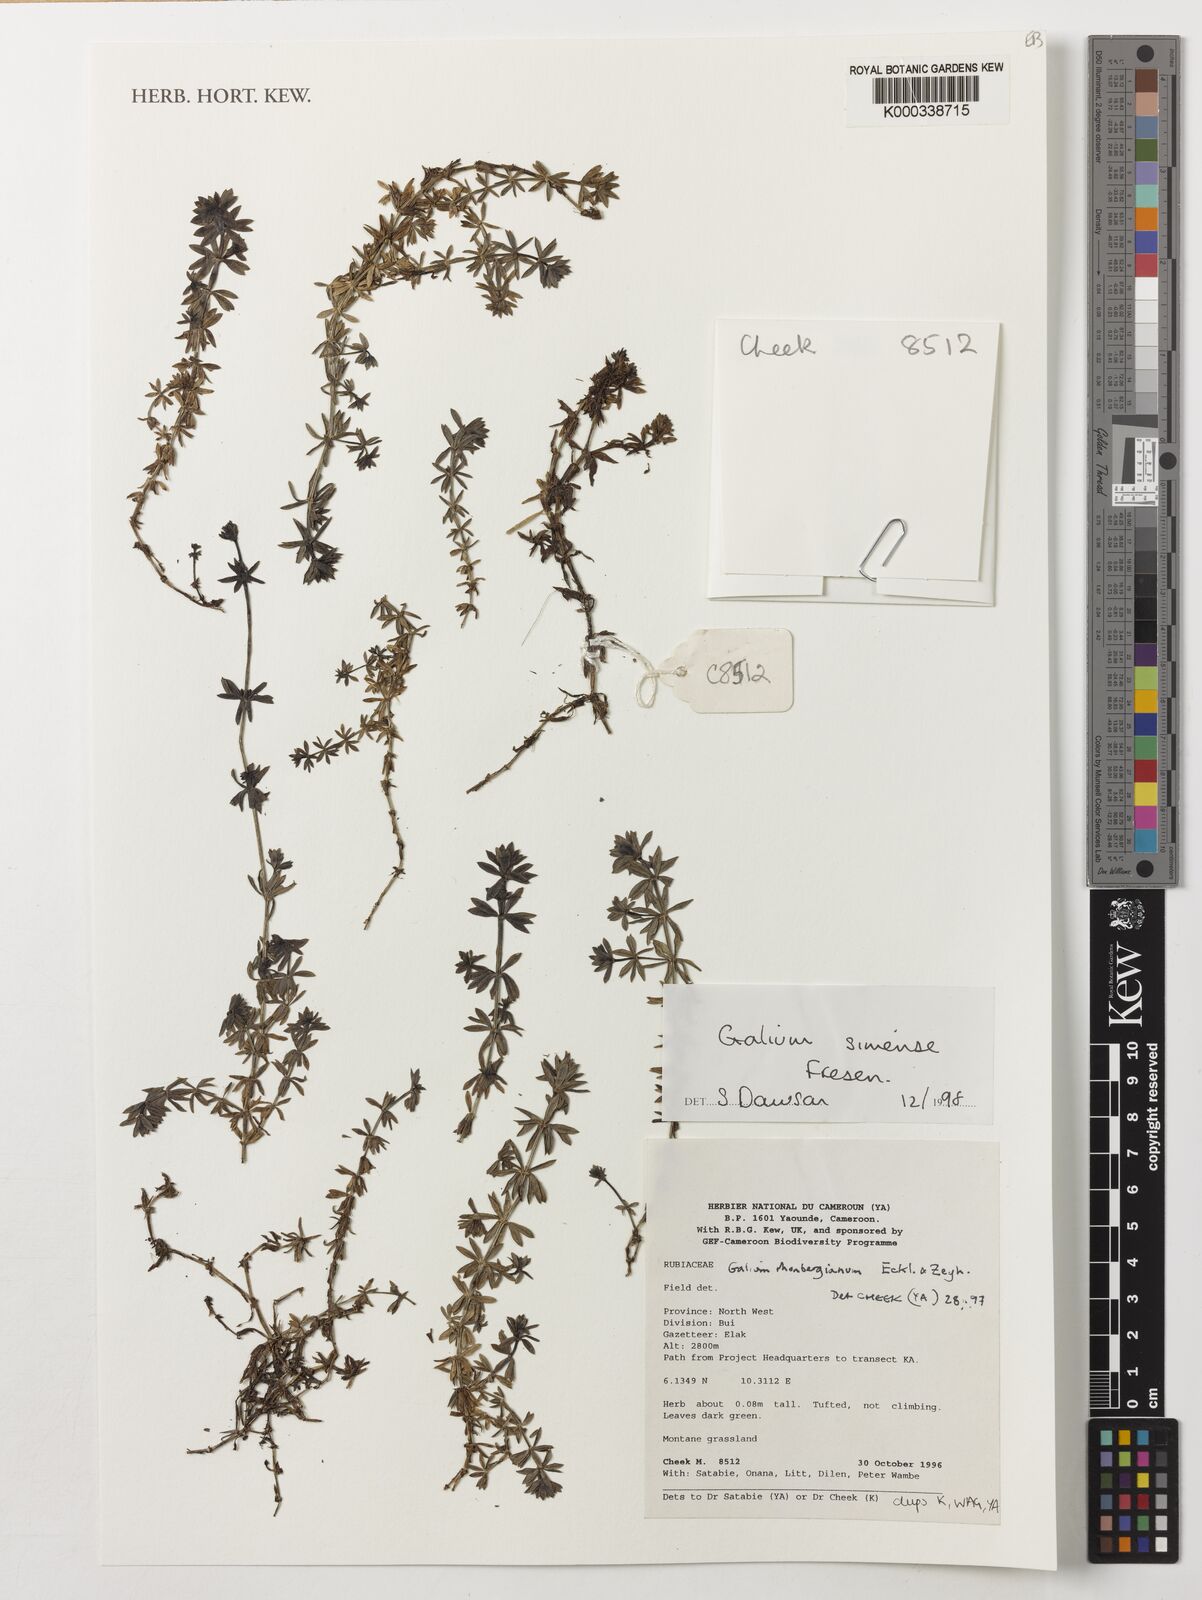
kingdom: Plantae
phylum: Tracheophyta
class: Magnoliopsida
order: Gentianales
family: Rubiaceae
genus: Galium
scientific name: Galium simense
